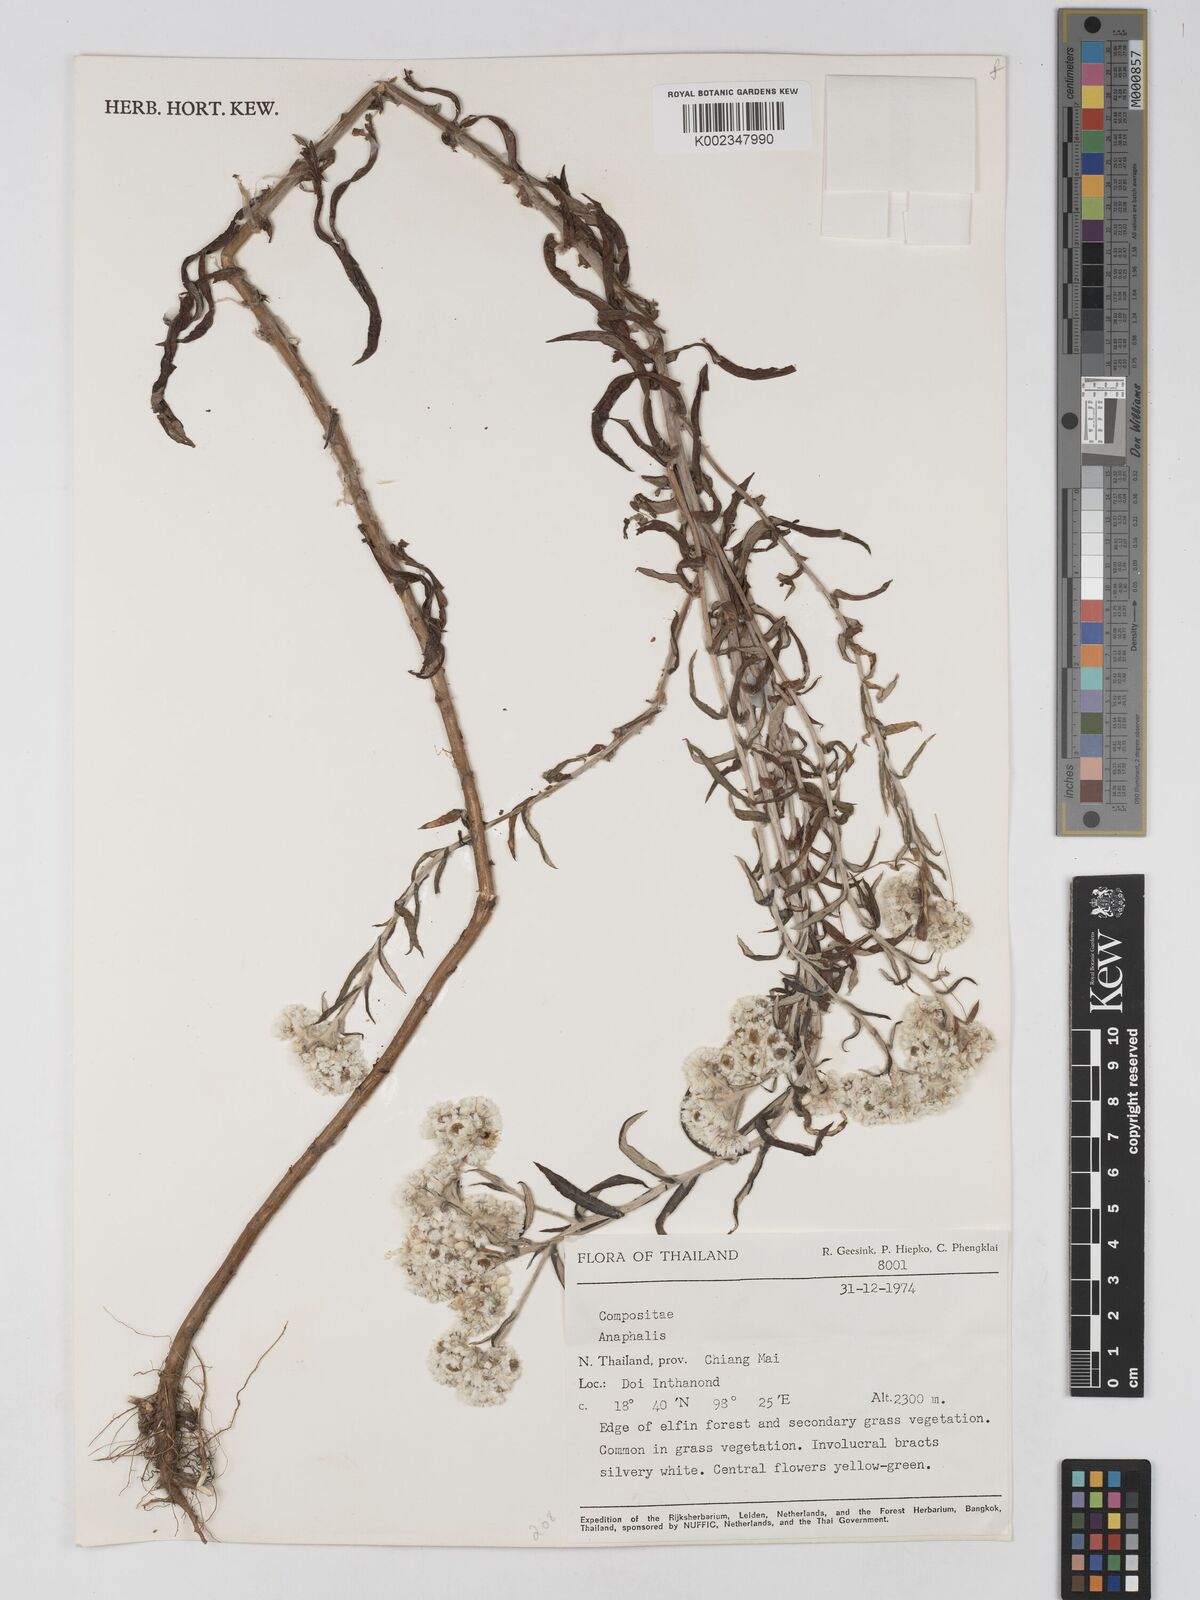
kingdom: Plantae
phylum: Tracheophyta
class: Magnoliopsida
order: Asterales
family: Asteraceae
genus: Anaphalis
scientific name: Anaphalis
